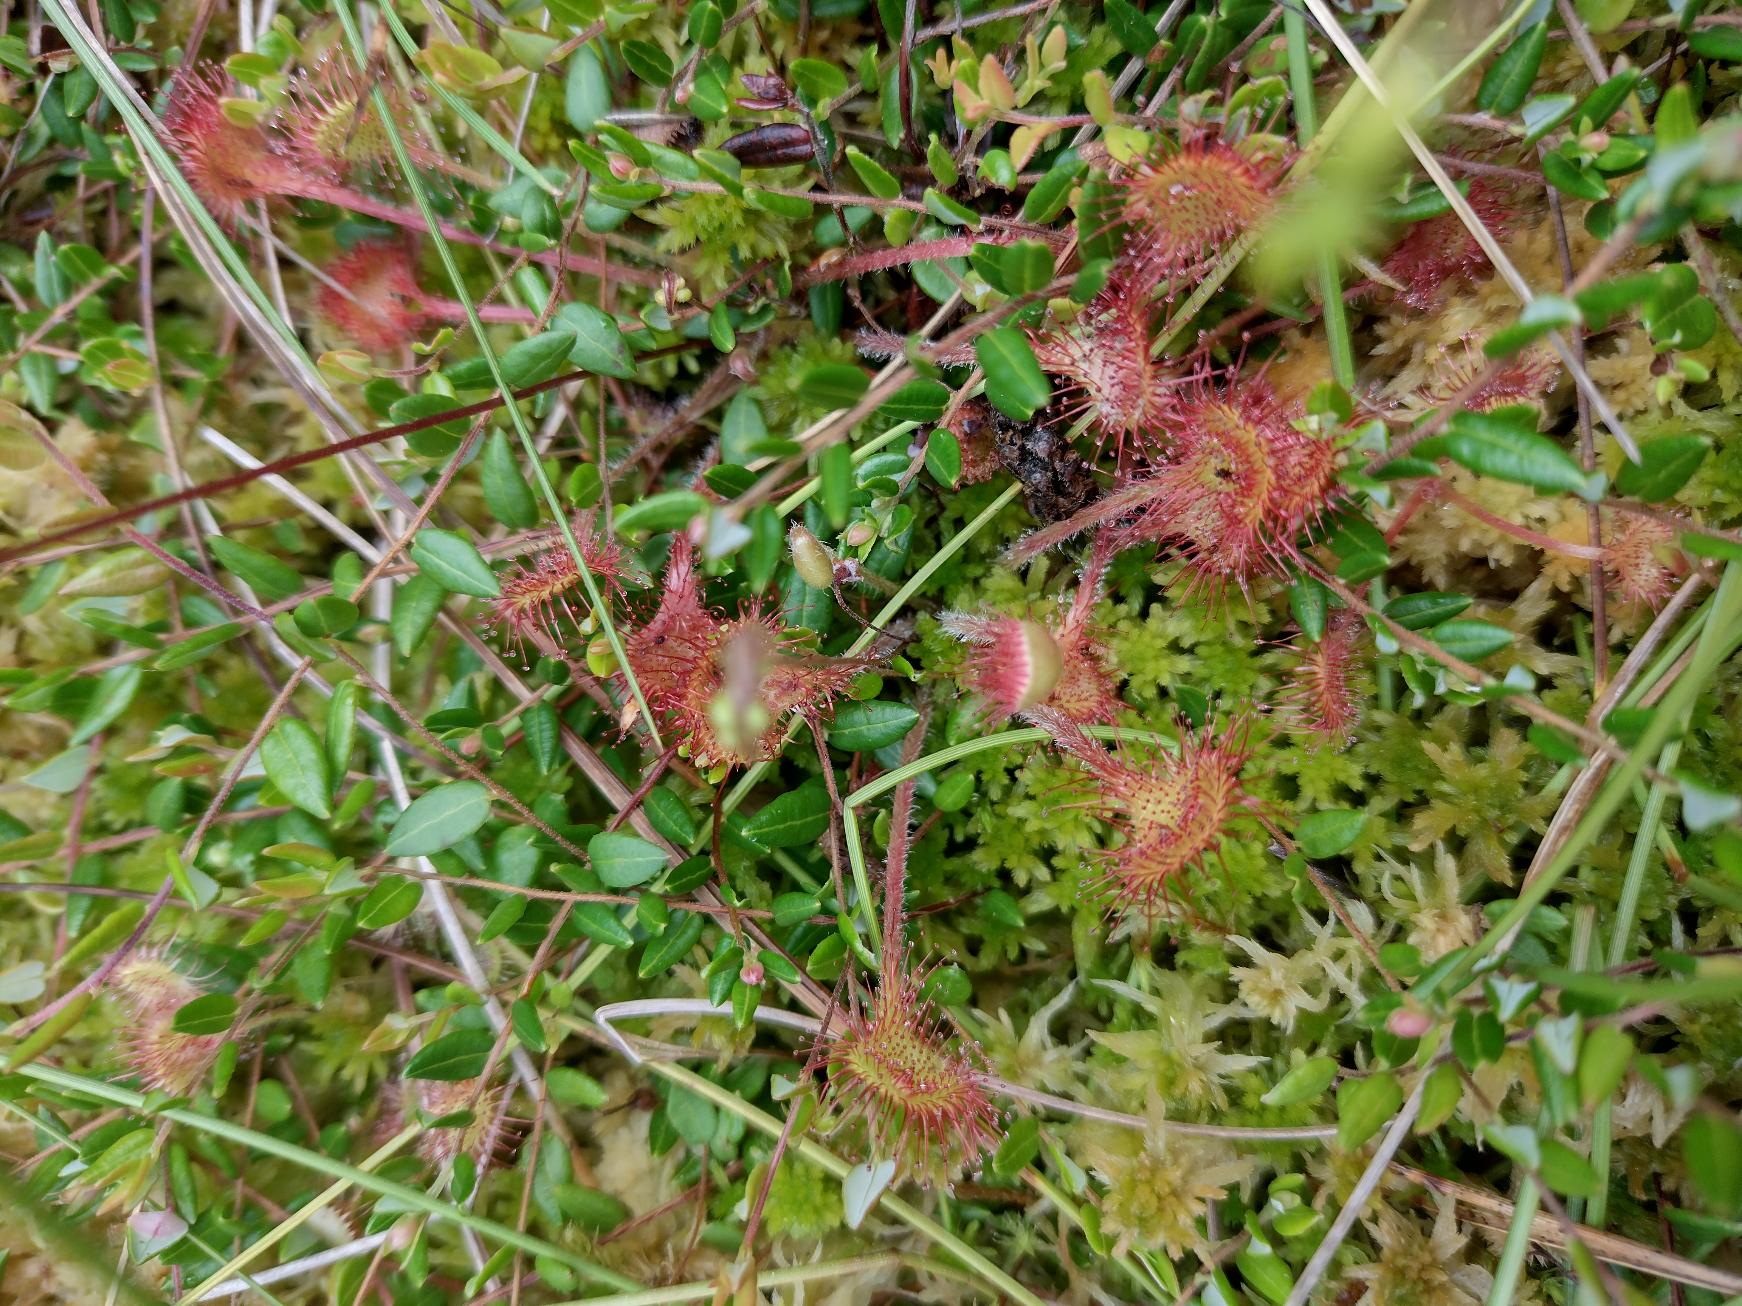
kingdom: Plantae
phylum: Tracheophyta
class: Magnoliopsida
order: Caryophyllales
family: Droseraceae
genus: Drosera
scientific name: Drosera rotundifolia
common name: Rundbladet soldug
